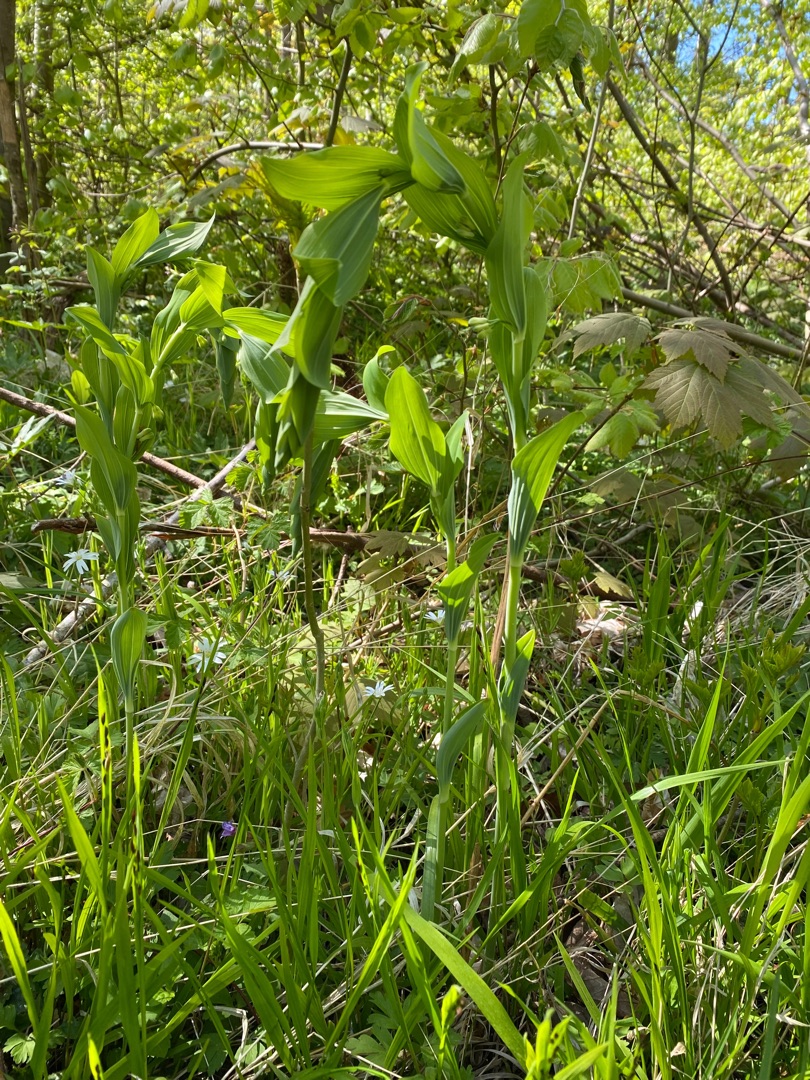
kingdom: Plantae
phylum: Tracheophyta
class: Liliopsida
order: Asparagales
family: Asparagaceae
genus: Polygonatum
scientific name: Polygonatum multiflorum
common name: Stor konval
